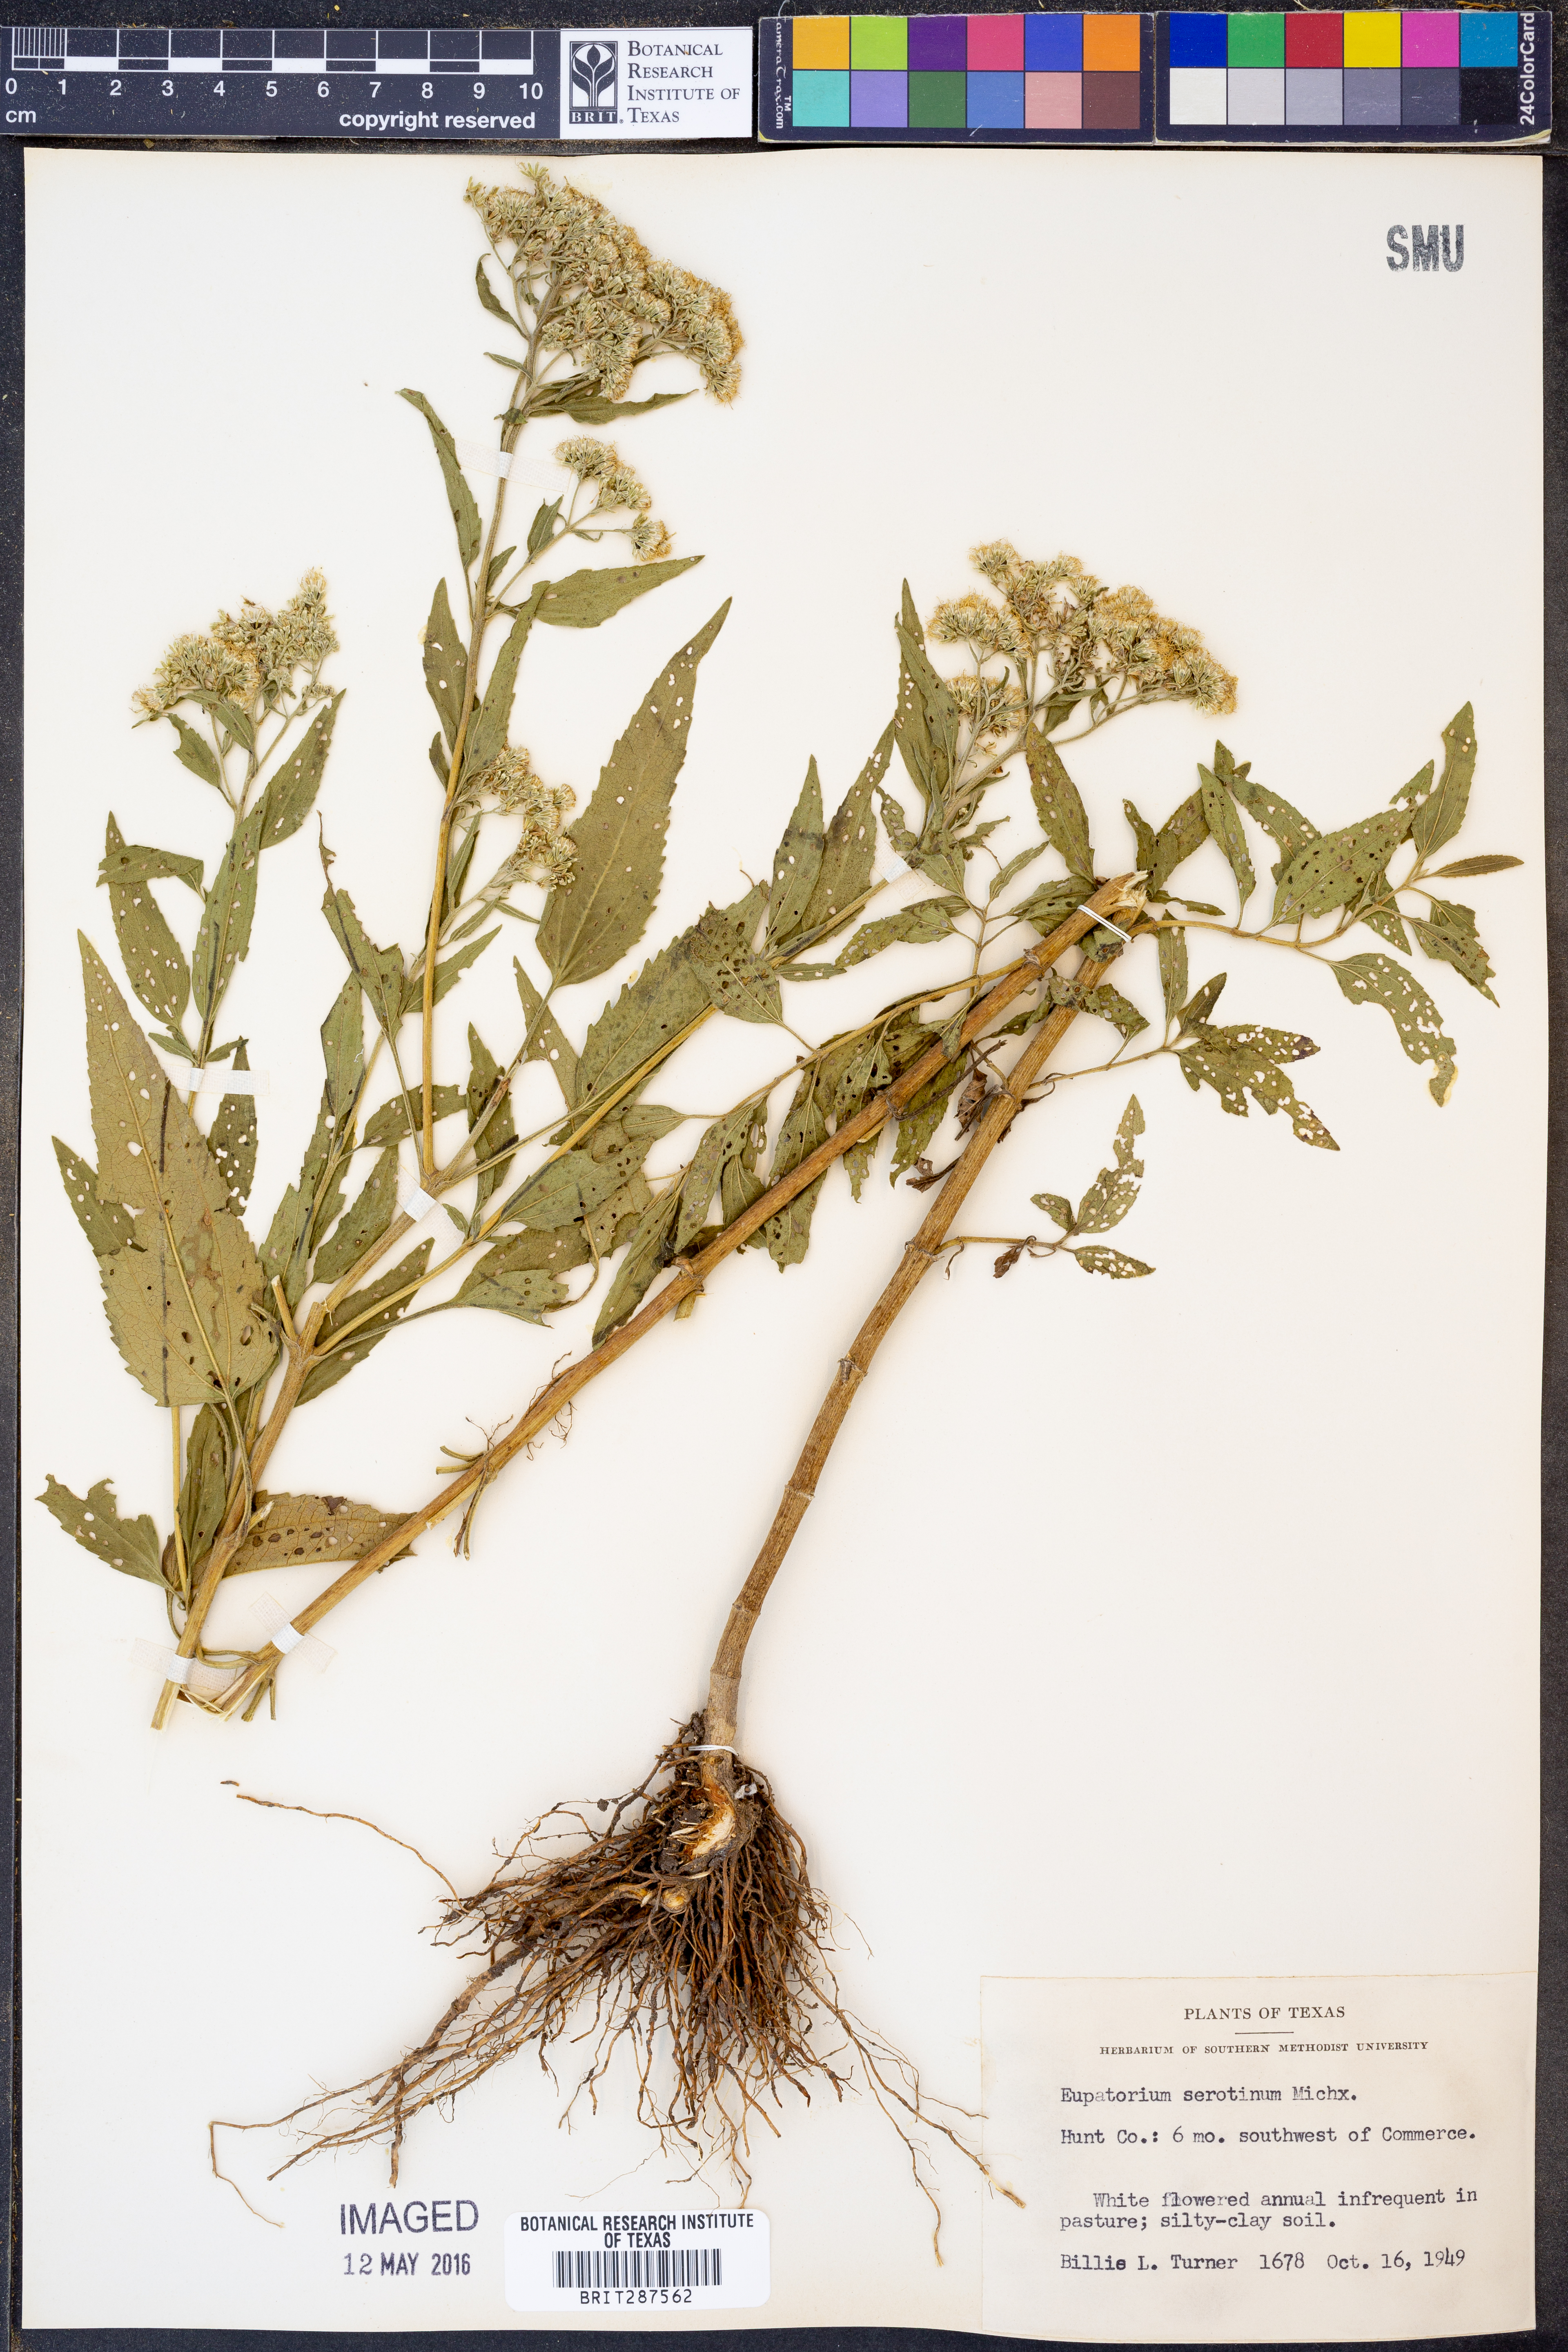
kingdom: Plantae
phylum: Tracheophyta
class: Magnoliopsida
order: Asterales
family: Asteraceae
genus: Eupatorium
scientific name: Eupatorium serotinum
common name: Late boneset
